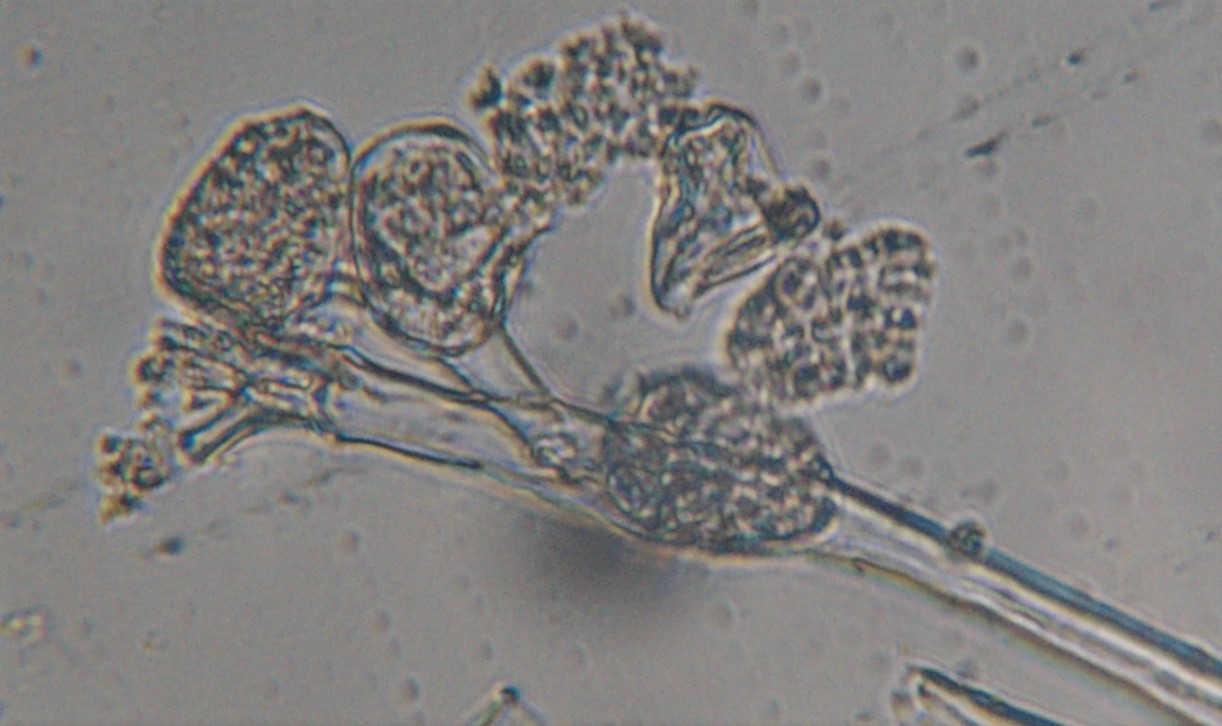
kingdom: Chromista
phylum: Oomycota
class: Peronosporea
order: Peronosporales
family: Peronosporaceae
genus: Plasmoverna
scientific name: Plasmoverna pygmaea
